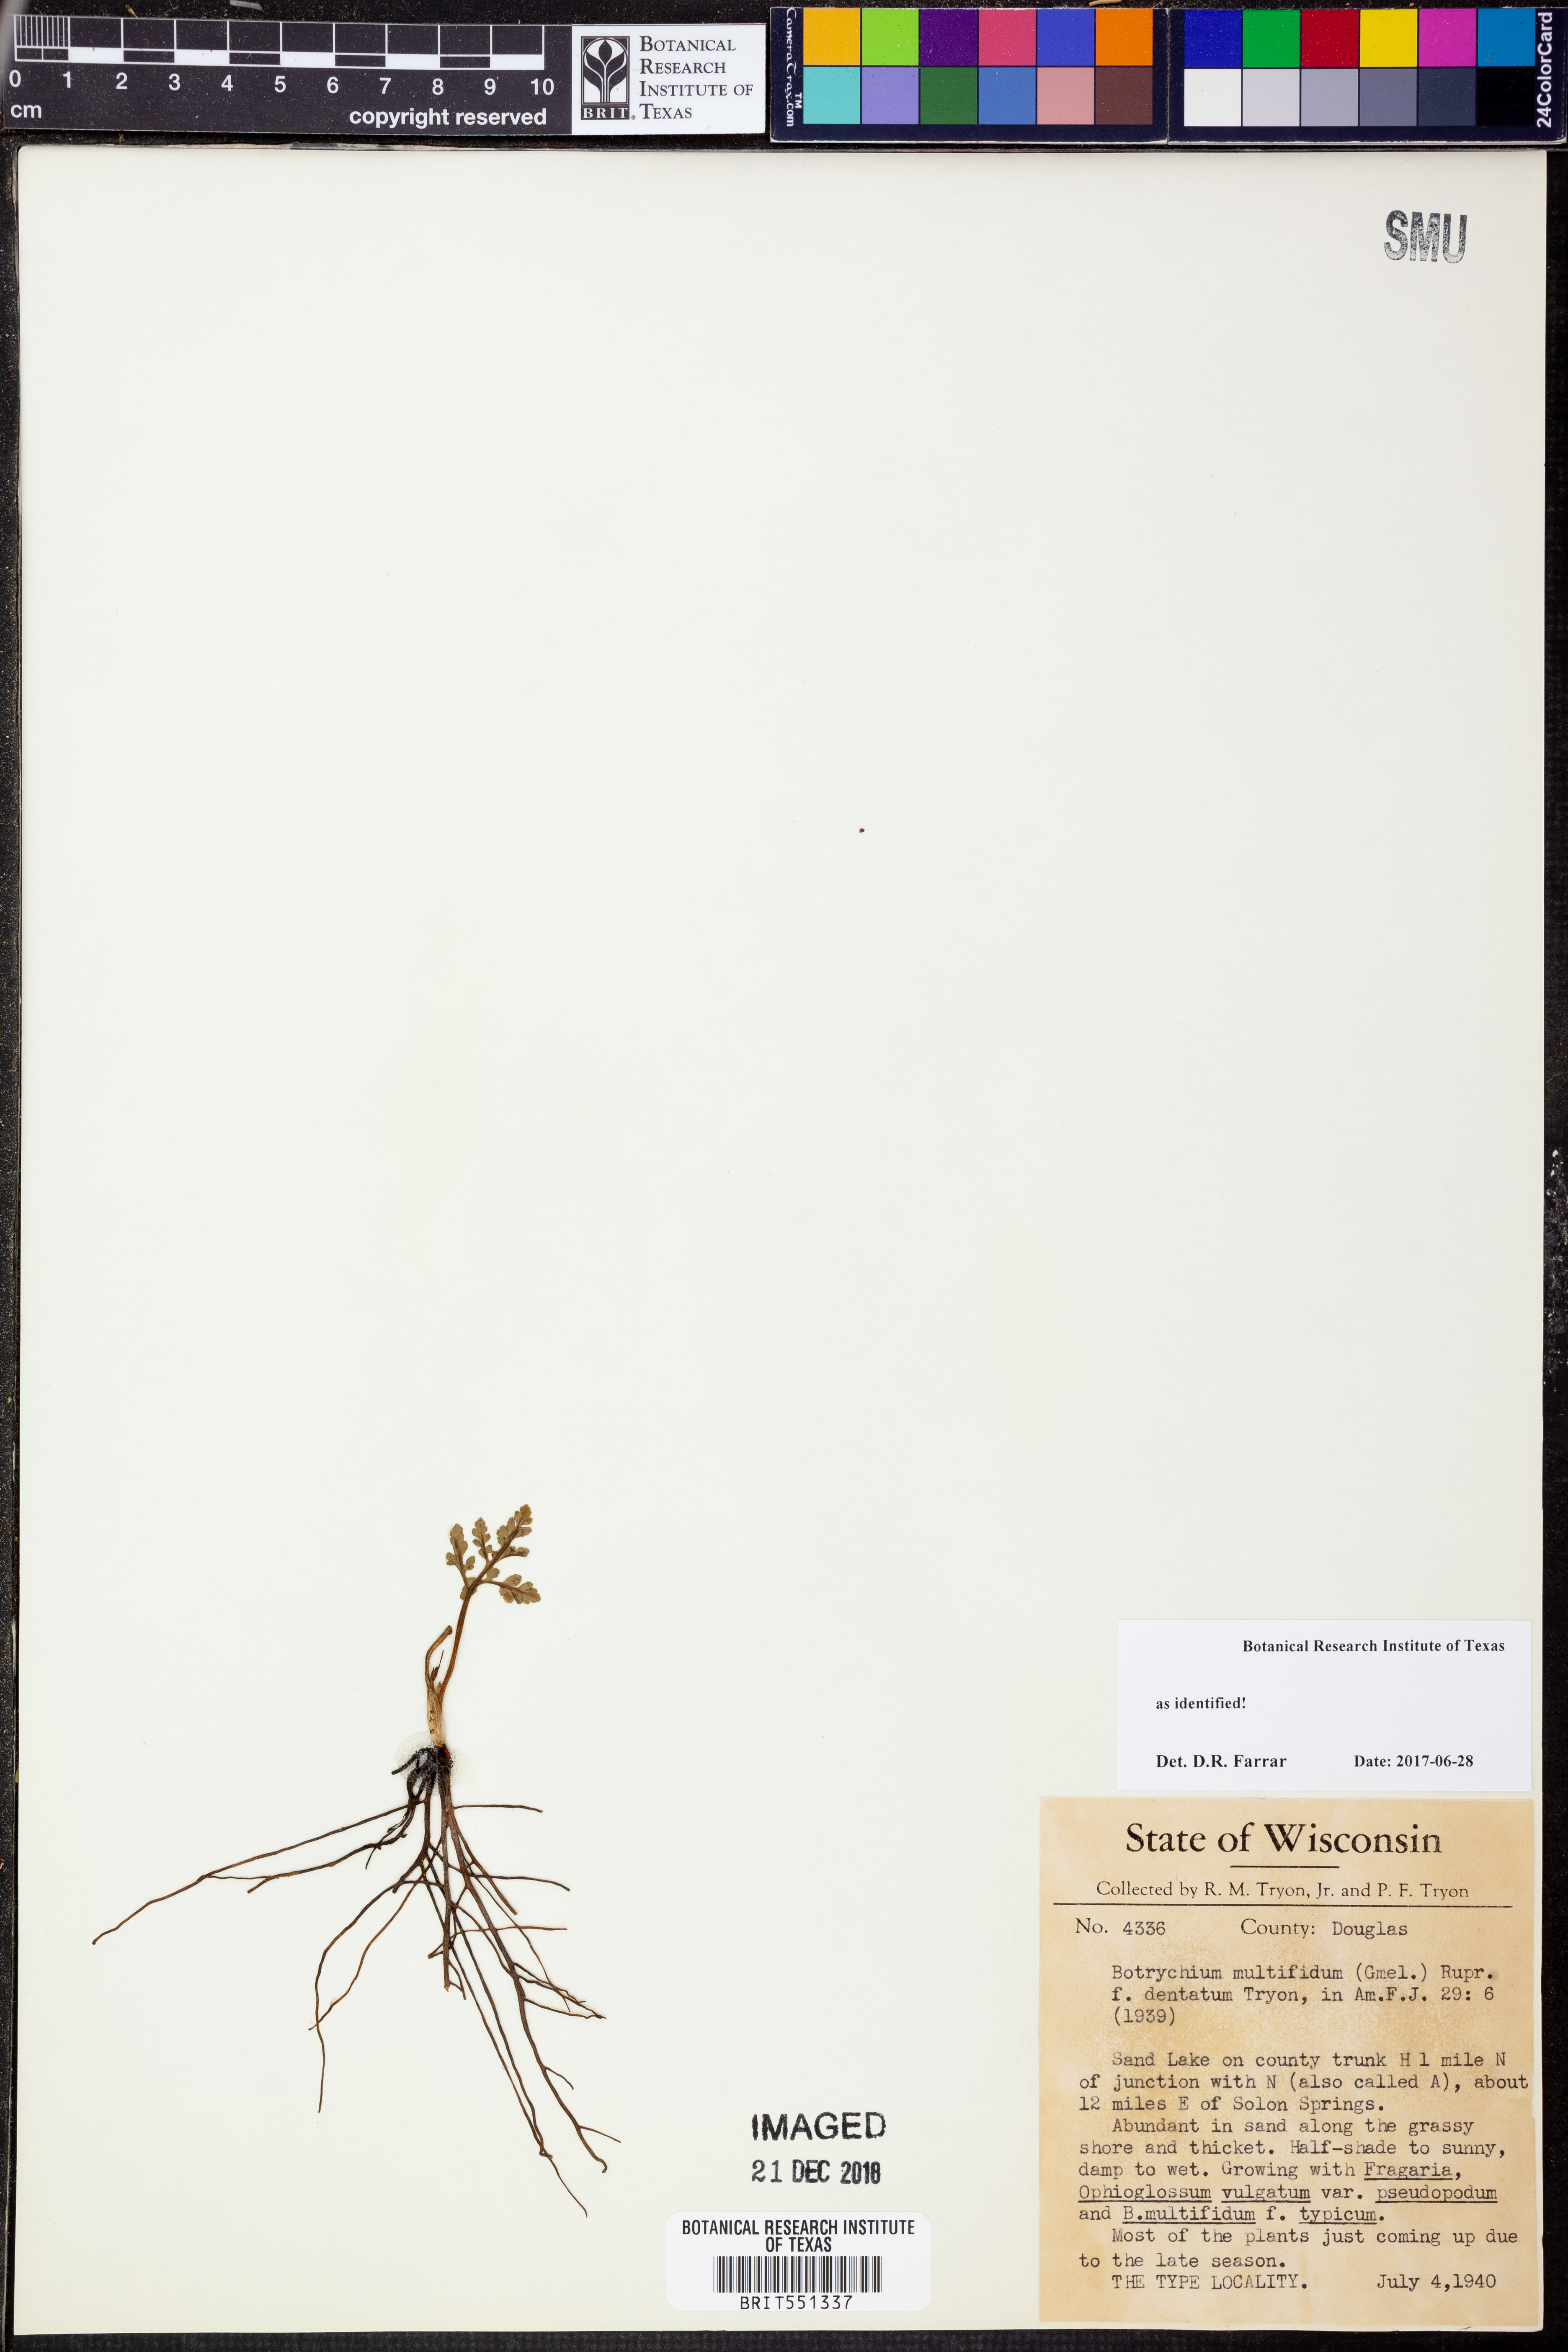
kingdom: Plantae
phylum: Tracheophyta
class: Polypodiopsida
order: Ophioglossales
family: Ophioglossaceae
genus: Sceptridium
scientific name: Sceptridium rugulosum
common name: Rugulose grapefern
